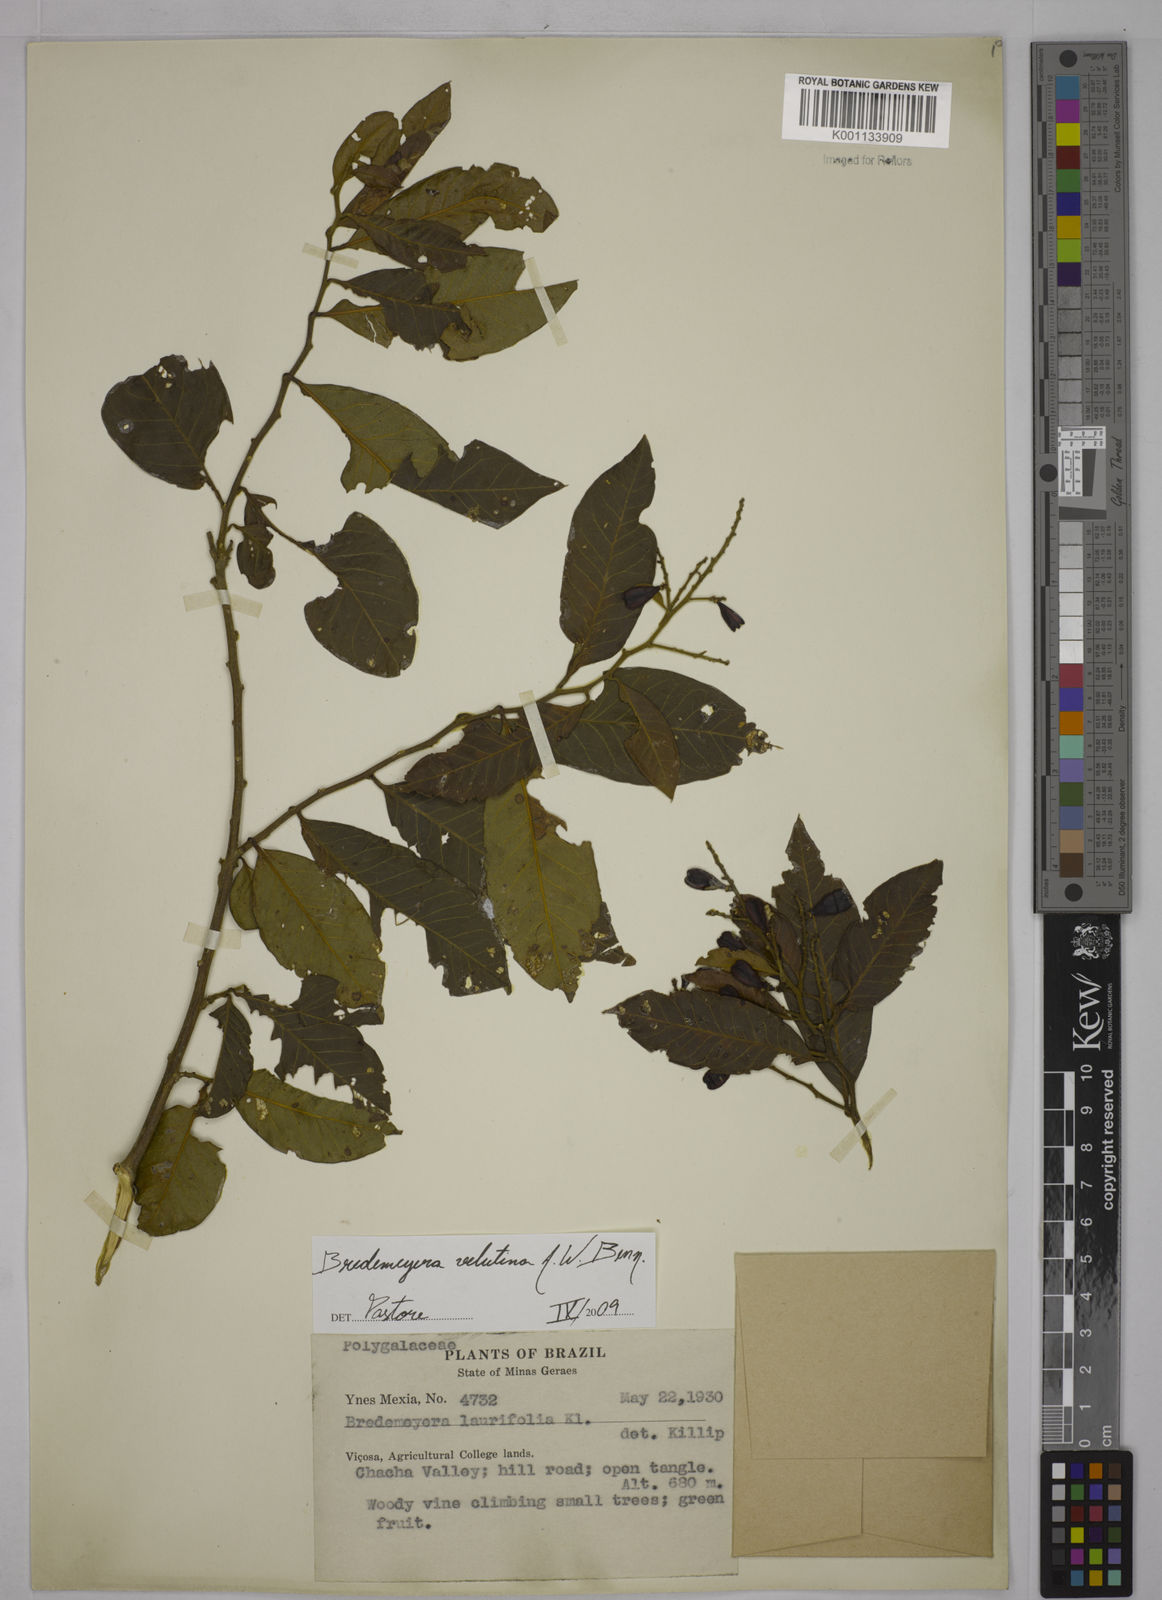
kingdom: Plantae
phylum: Tracheophyta
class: Magnoliopsida
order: Fabales
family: Polygalaceae
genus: Bredemeyera
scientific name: Bredemeyera hebeclada
